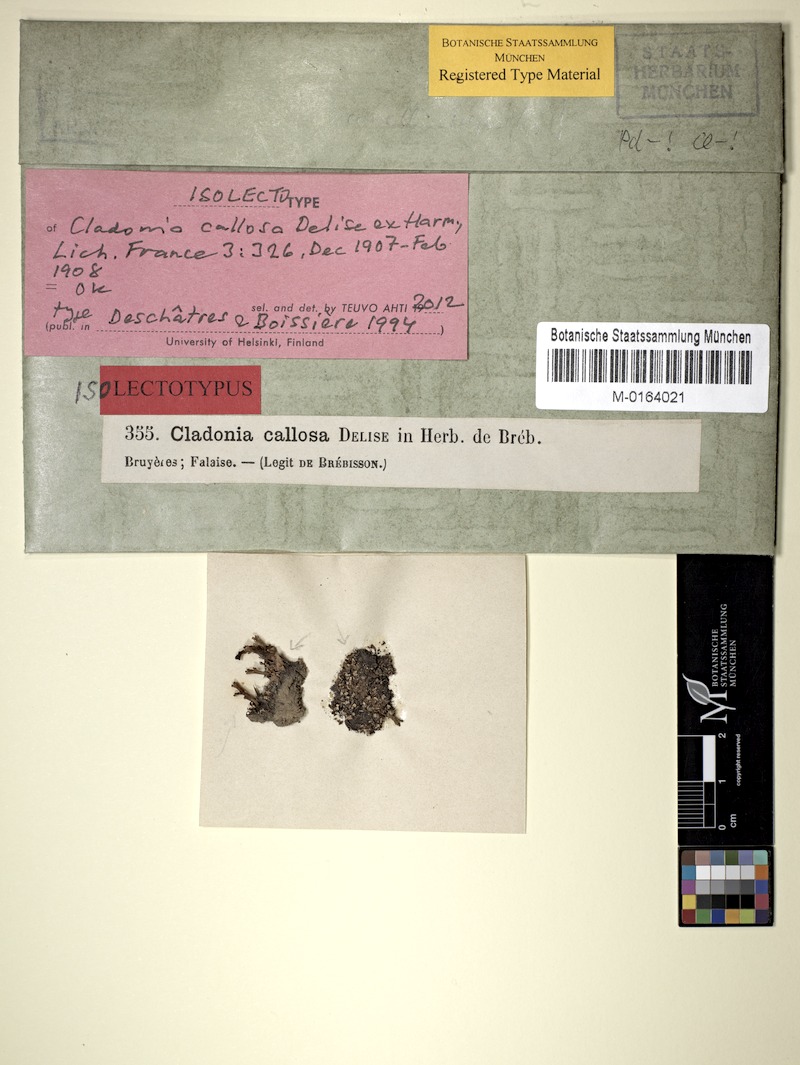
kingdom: Fungi
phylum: Ascomycota
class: Lecanoromycetes
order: Lecanorales
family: Cladoniaceae
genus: Cladonia
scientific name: Cladonia callosa
